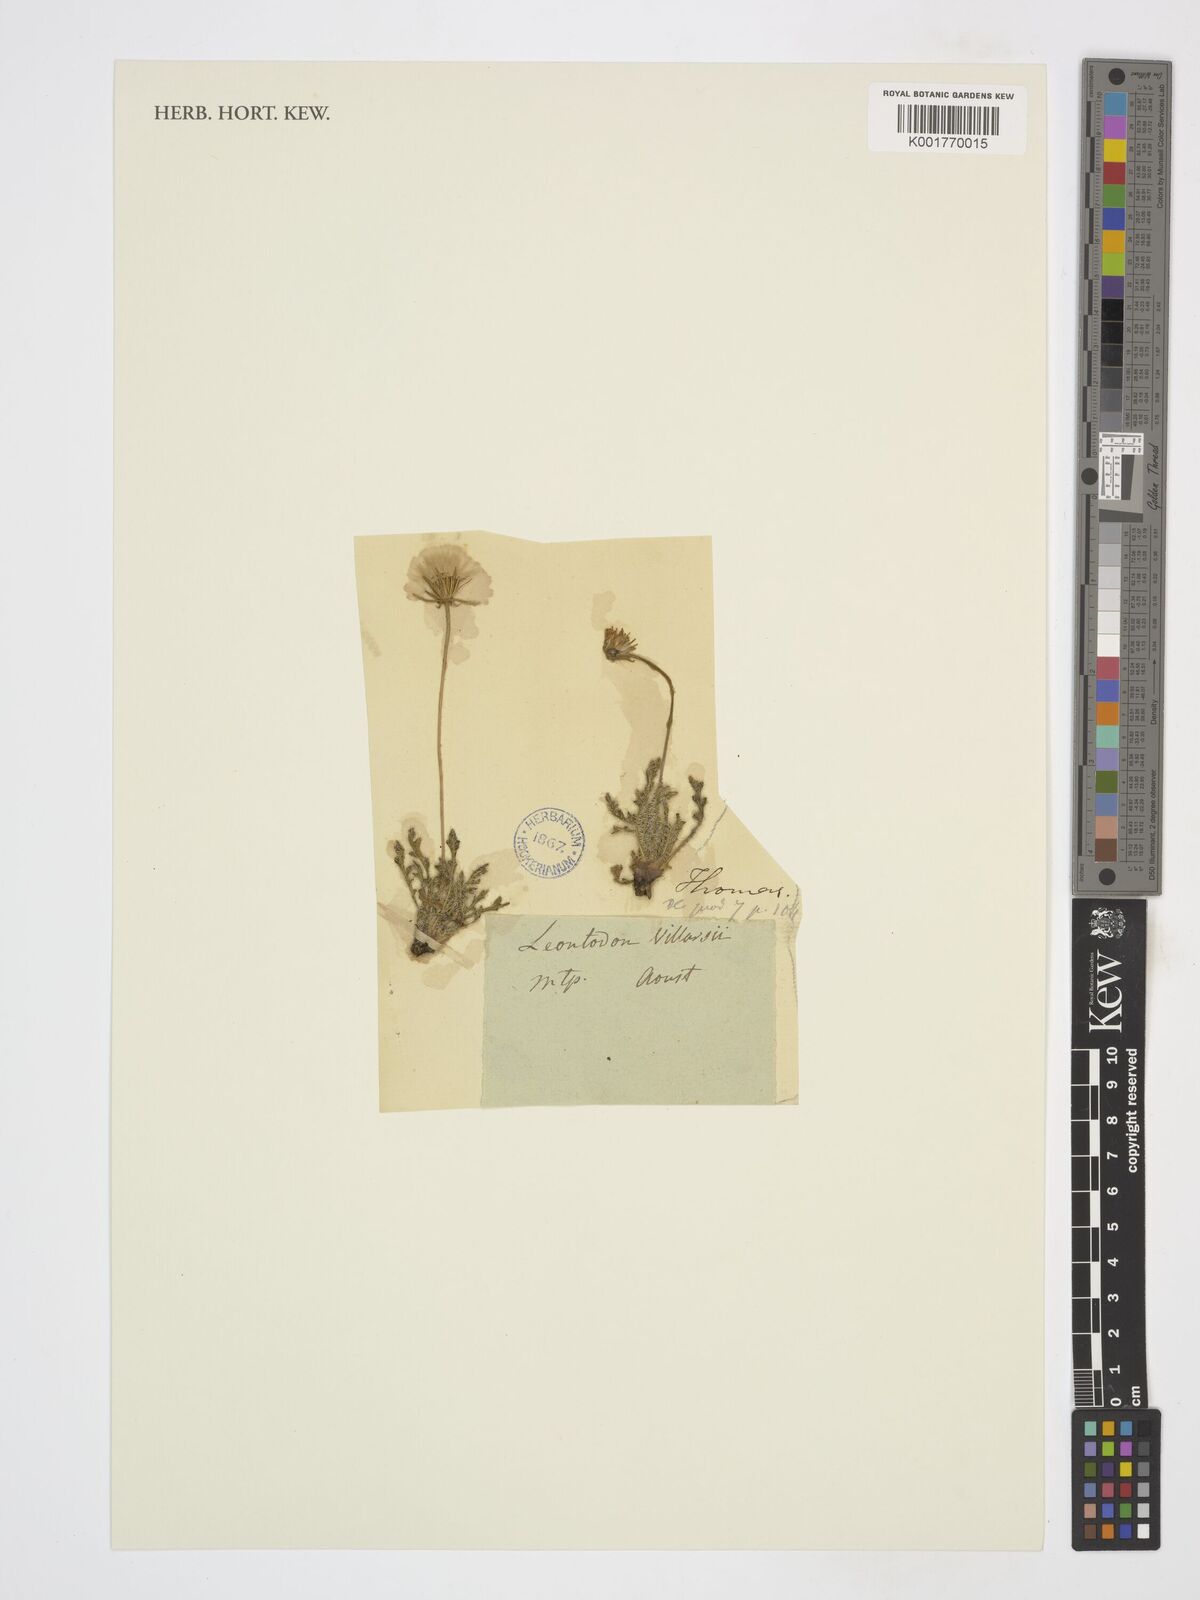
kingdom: Plantae
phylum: Tracheophyta
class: Magnoliopsida
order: Asterales
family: Asteraceae
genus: Leontodon
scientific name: Leontodon hirtus
